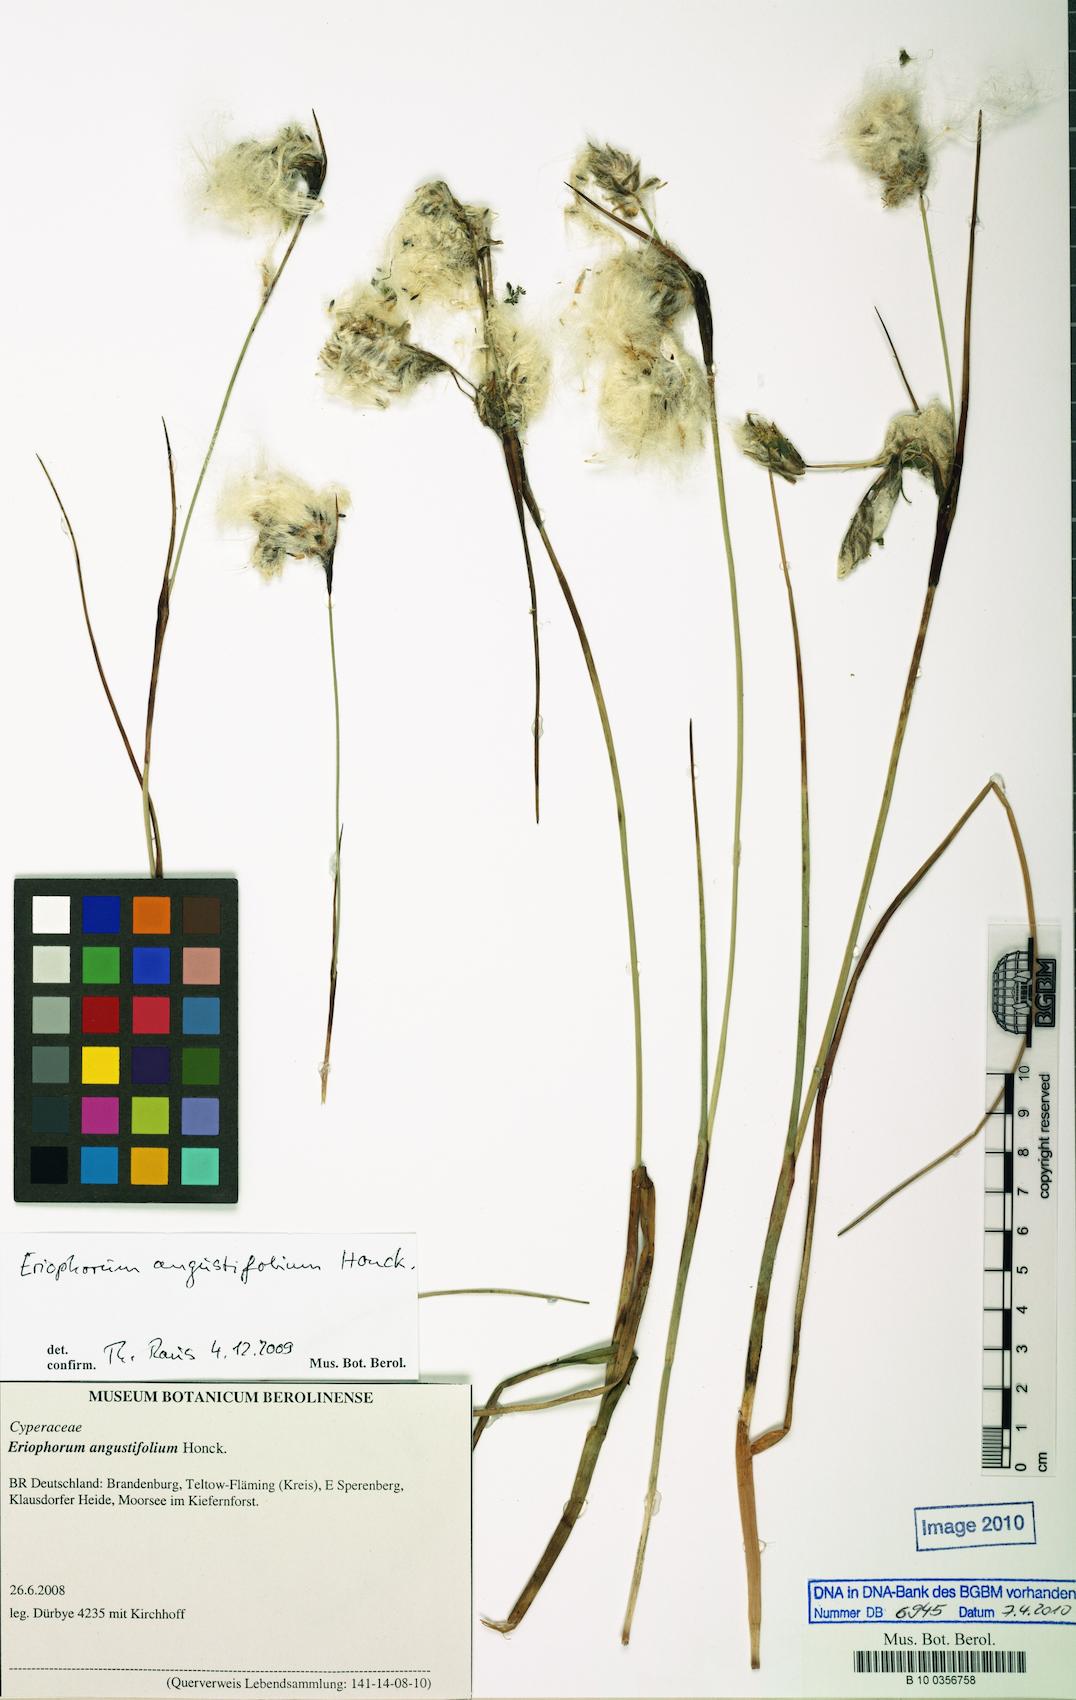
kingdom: Plantae
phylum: Tracheophyta
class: Liliopsida
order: Poales
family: Cyperaceae
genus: Eriophorum
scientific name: Eriophorum angustifolium
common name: Common cottongrass
